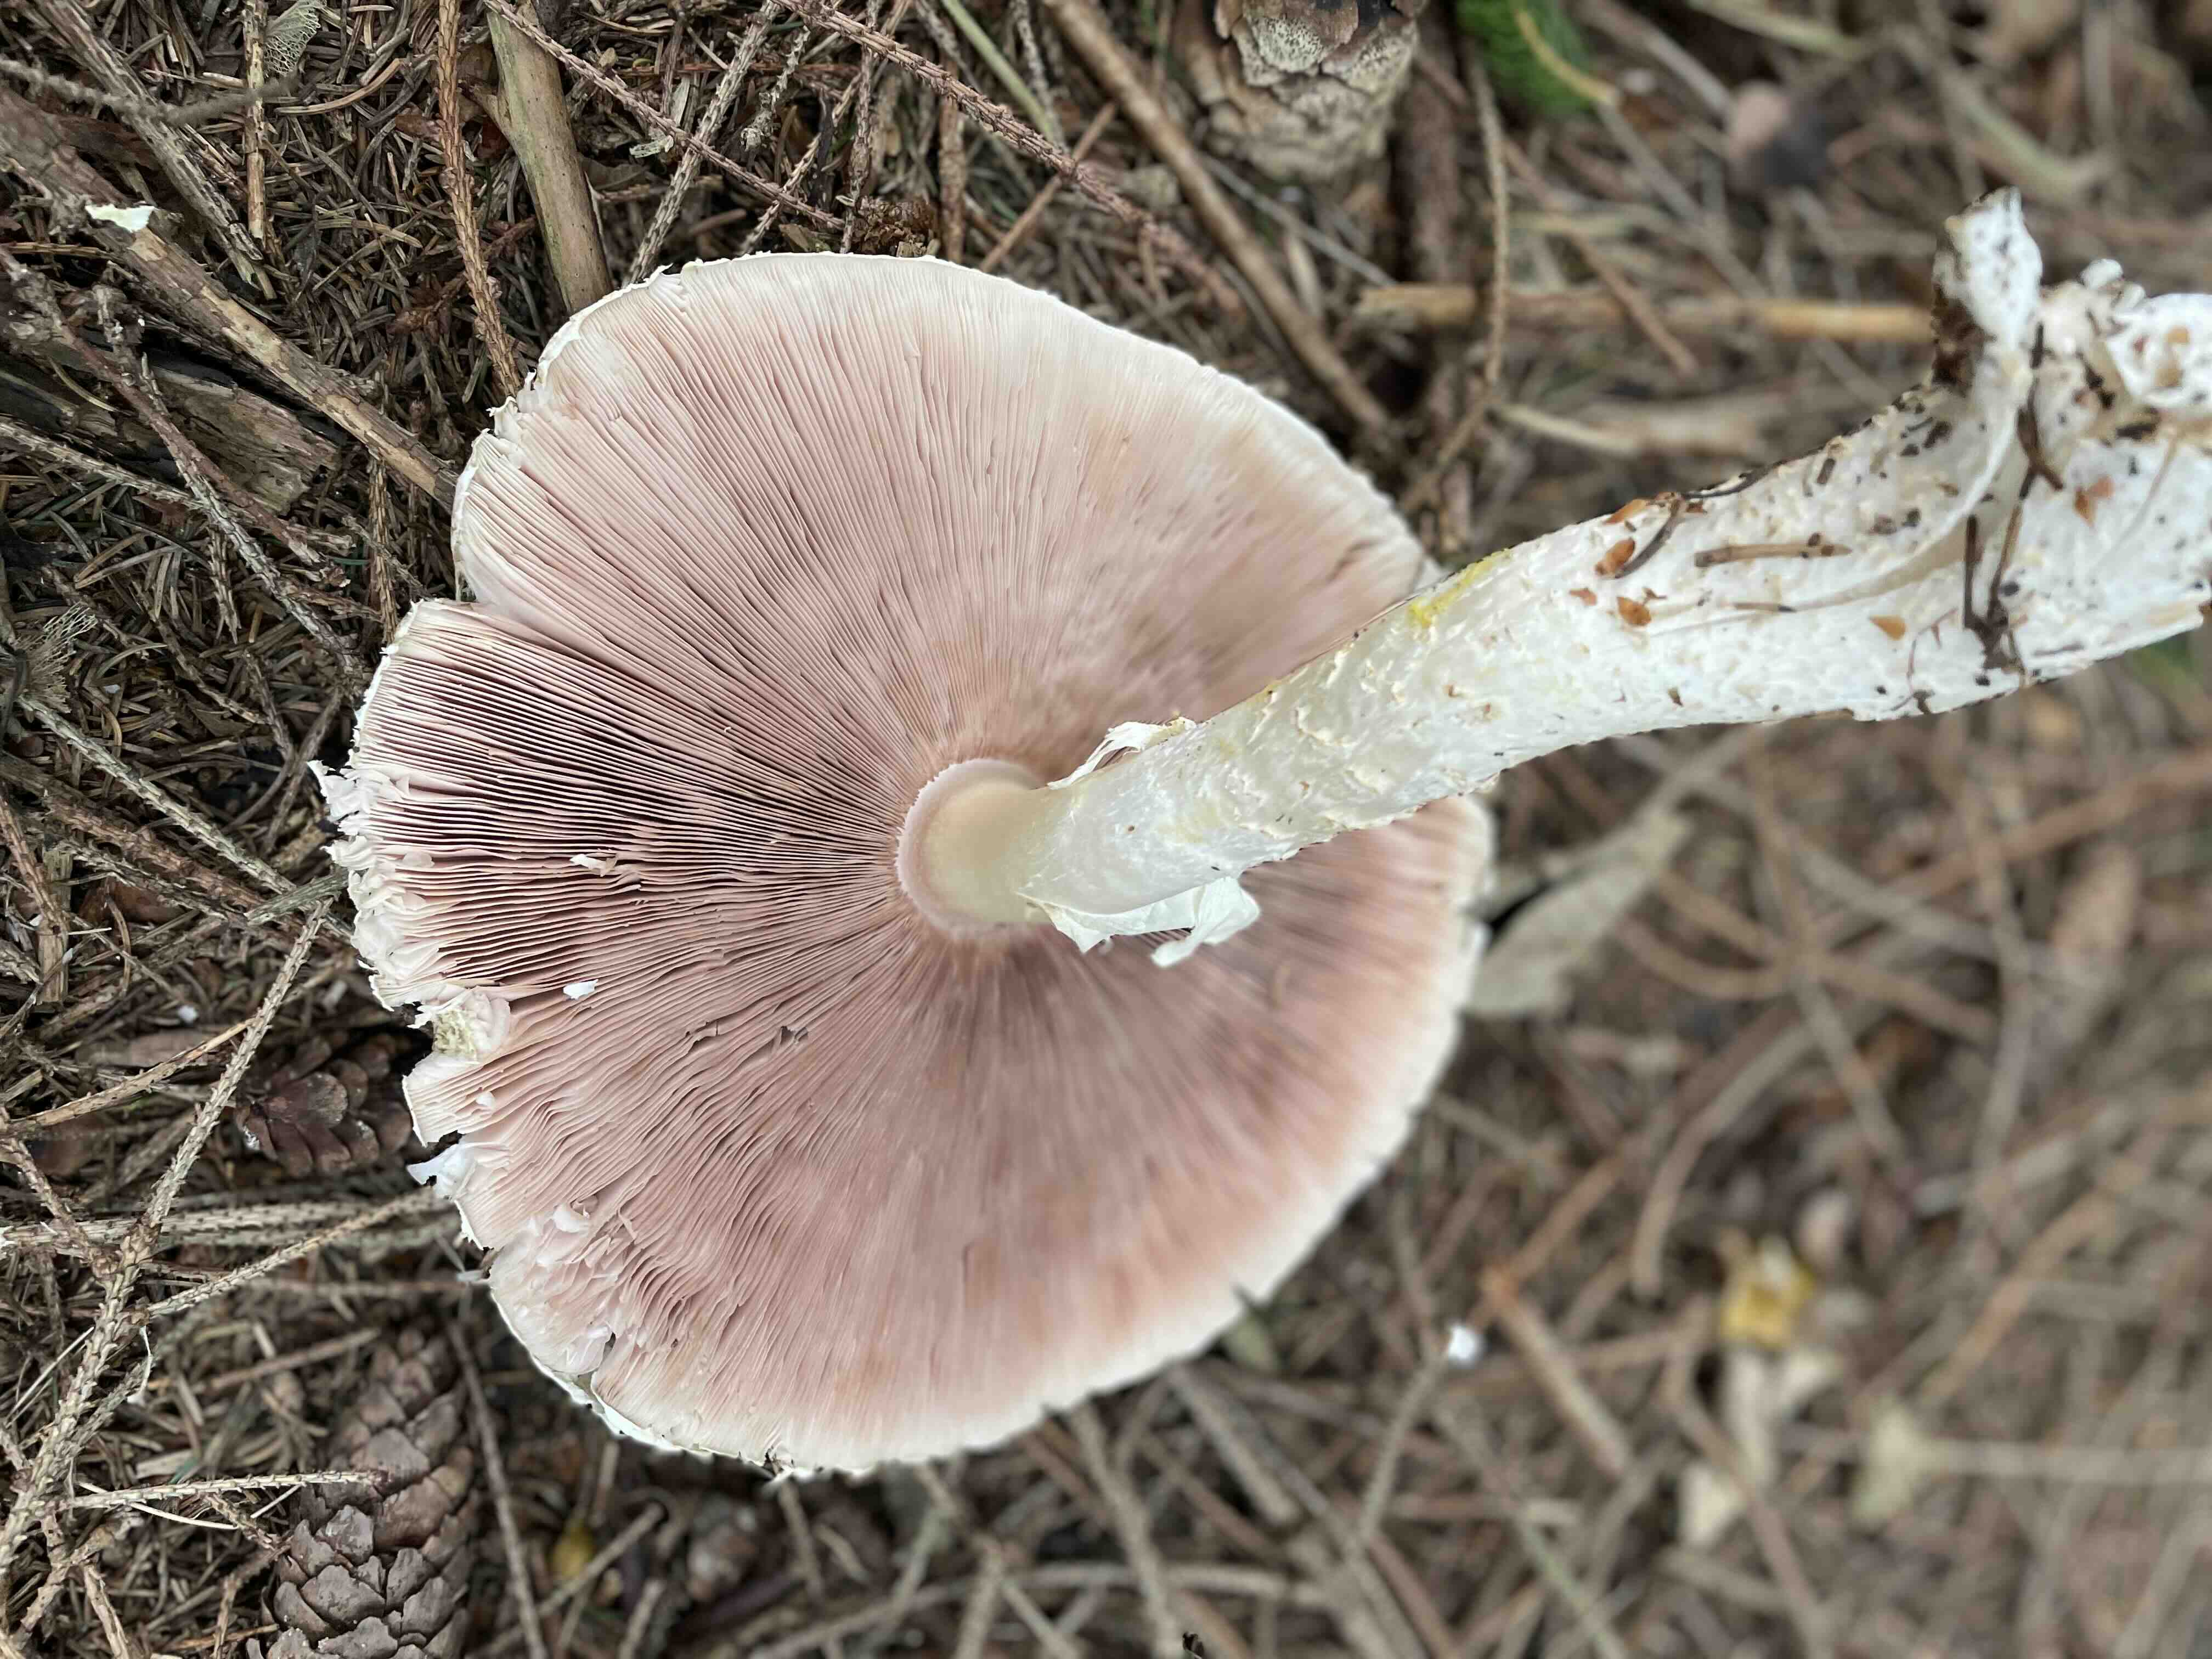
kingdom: Fungi
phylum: Basidiomycota
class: Agaricomycetes
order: Agaricales
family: Agaricaceae
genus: Agaricus
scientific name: Agaricus augustus
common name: prægtig champignon
